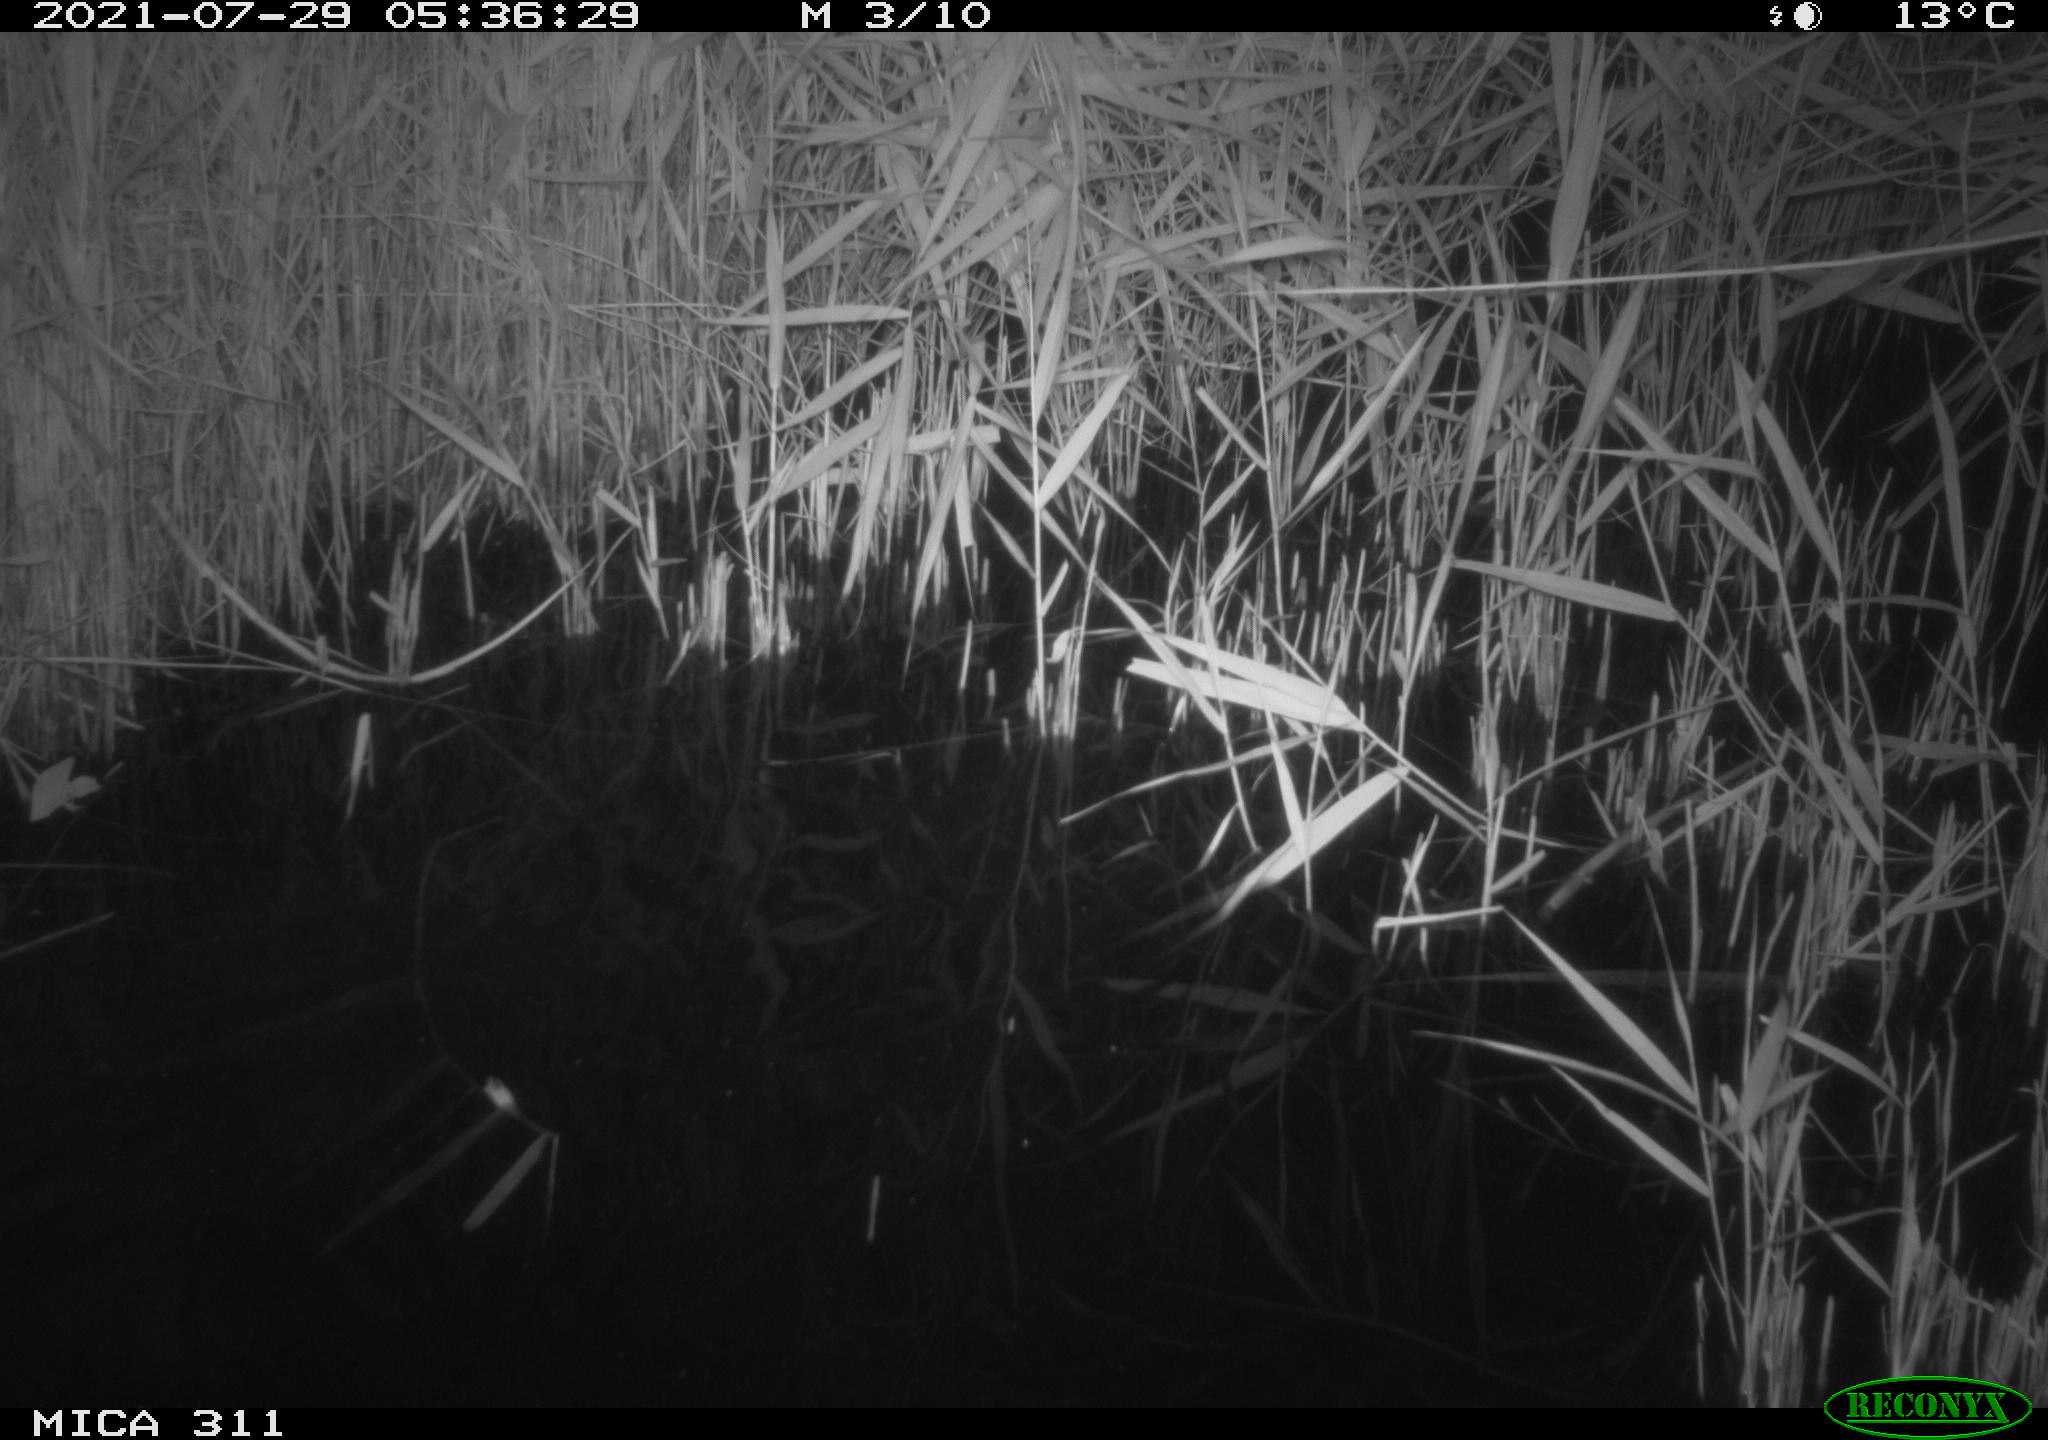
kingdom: Animalia
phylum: Chordata
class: Mammalia
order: Rodentia
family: Muridae
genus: Rattus
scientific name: Rattus norvegicus
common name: Brown rat
